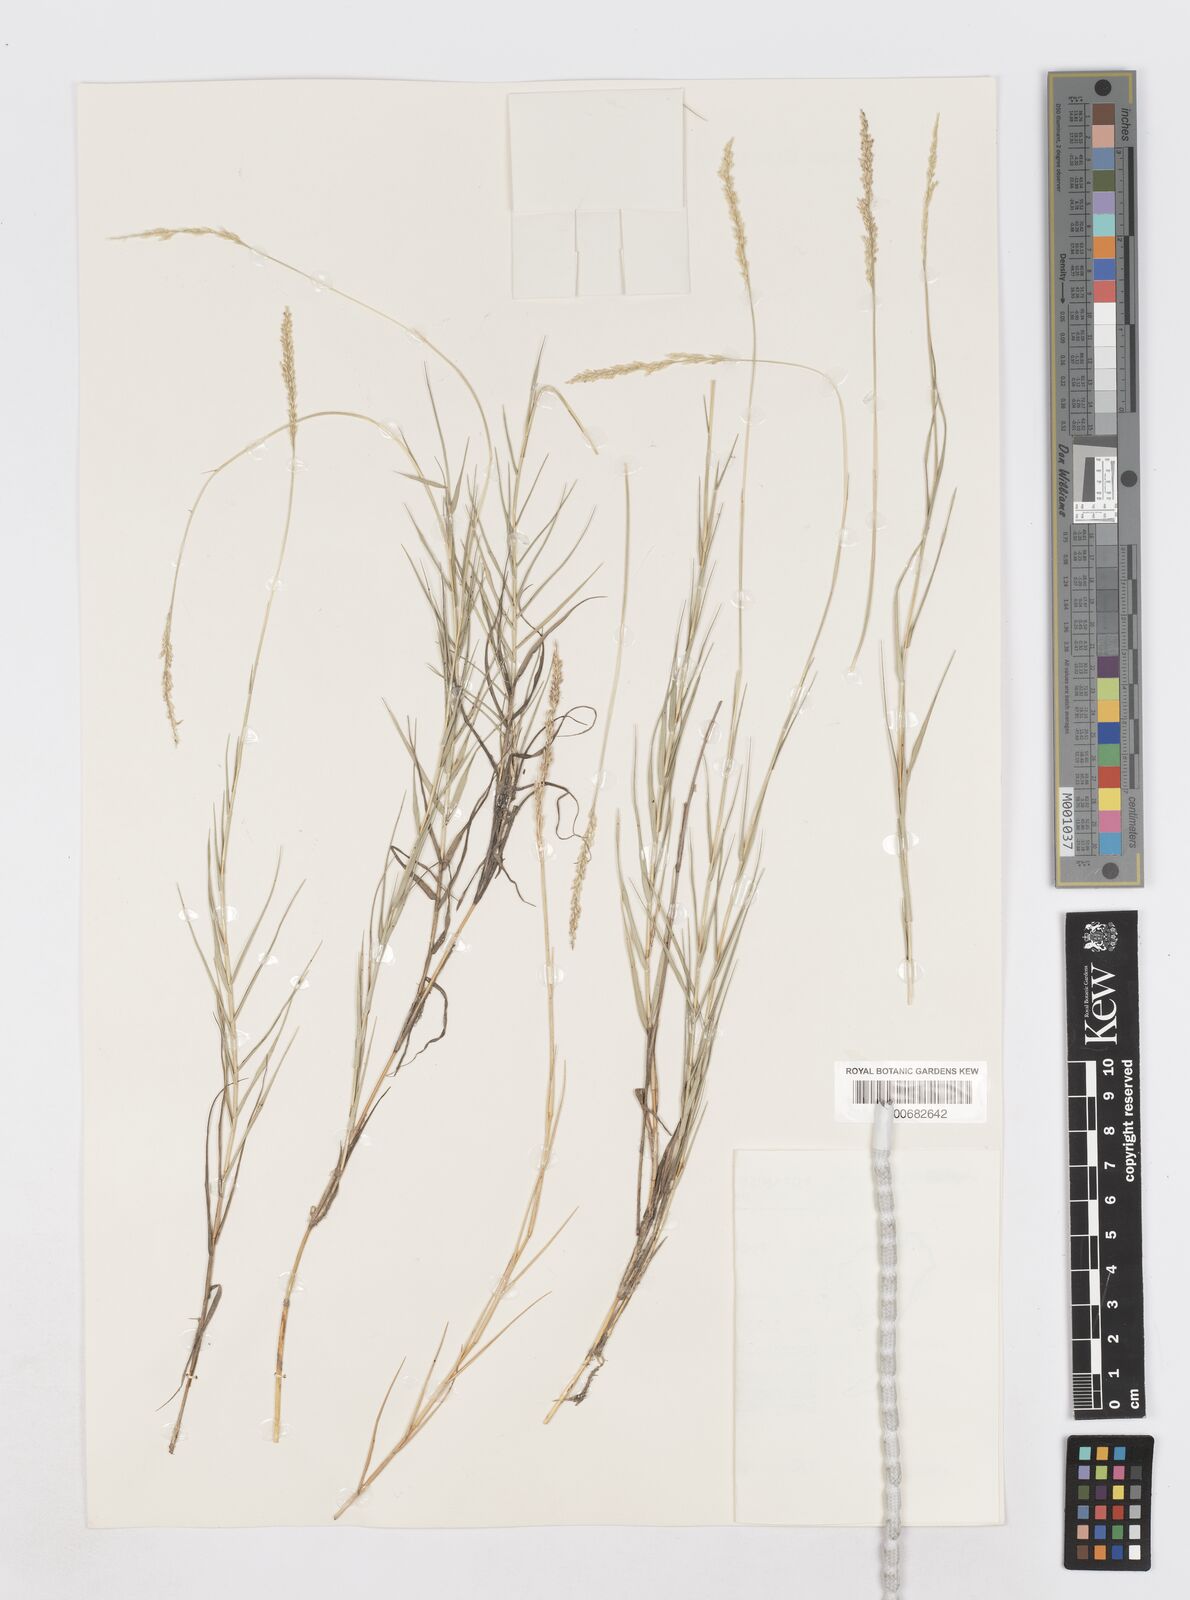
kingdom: Plantae
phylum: Tracheophyta
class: Liliopsida
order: Poales
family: Poaceae
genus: Sporobolus
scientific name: Sporobolus virginicus
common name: Beach dropseed
